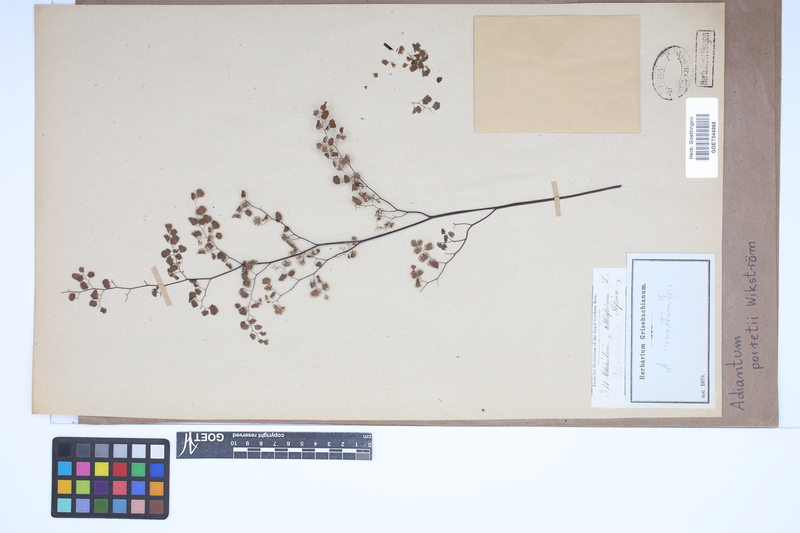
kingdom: Plantae
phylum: Tracheophyta
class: Polypodiopsida
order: Polypodiales
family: Pteridaceae
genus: Adiantum
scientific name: Adiantum poiretii
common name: Mexican maidenhair
